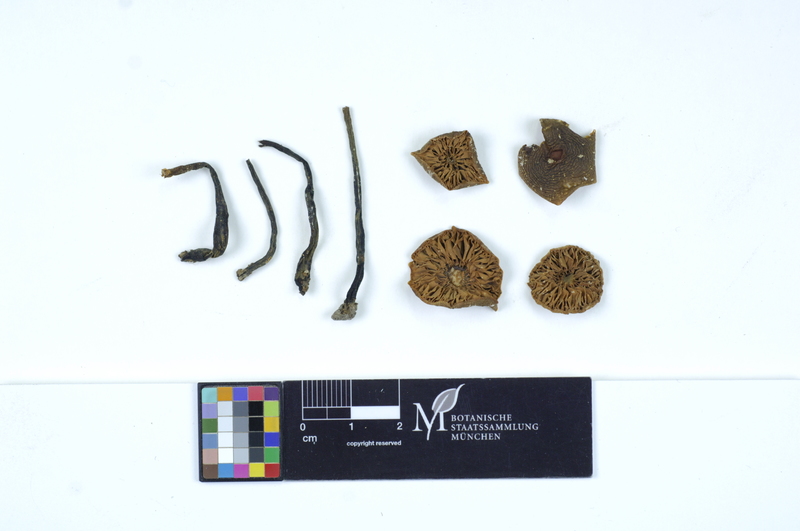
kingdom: Fungi
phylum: Basidiomycota
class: Agaricomycetes
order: Agaricales
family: Macrocystidiaceae
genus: Macrocystidia
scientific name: Macrocystidia cucumis
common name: Cucumber cap
